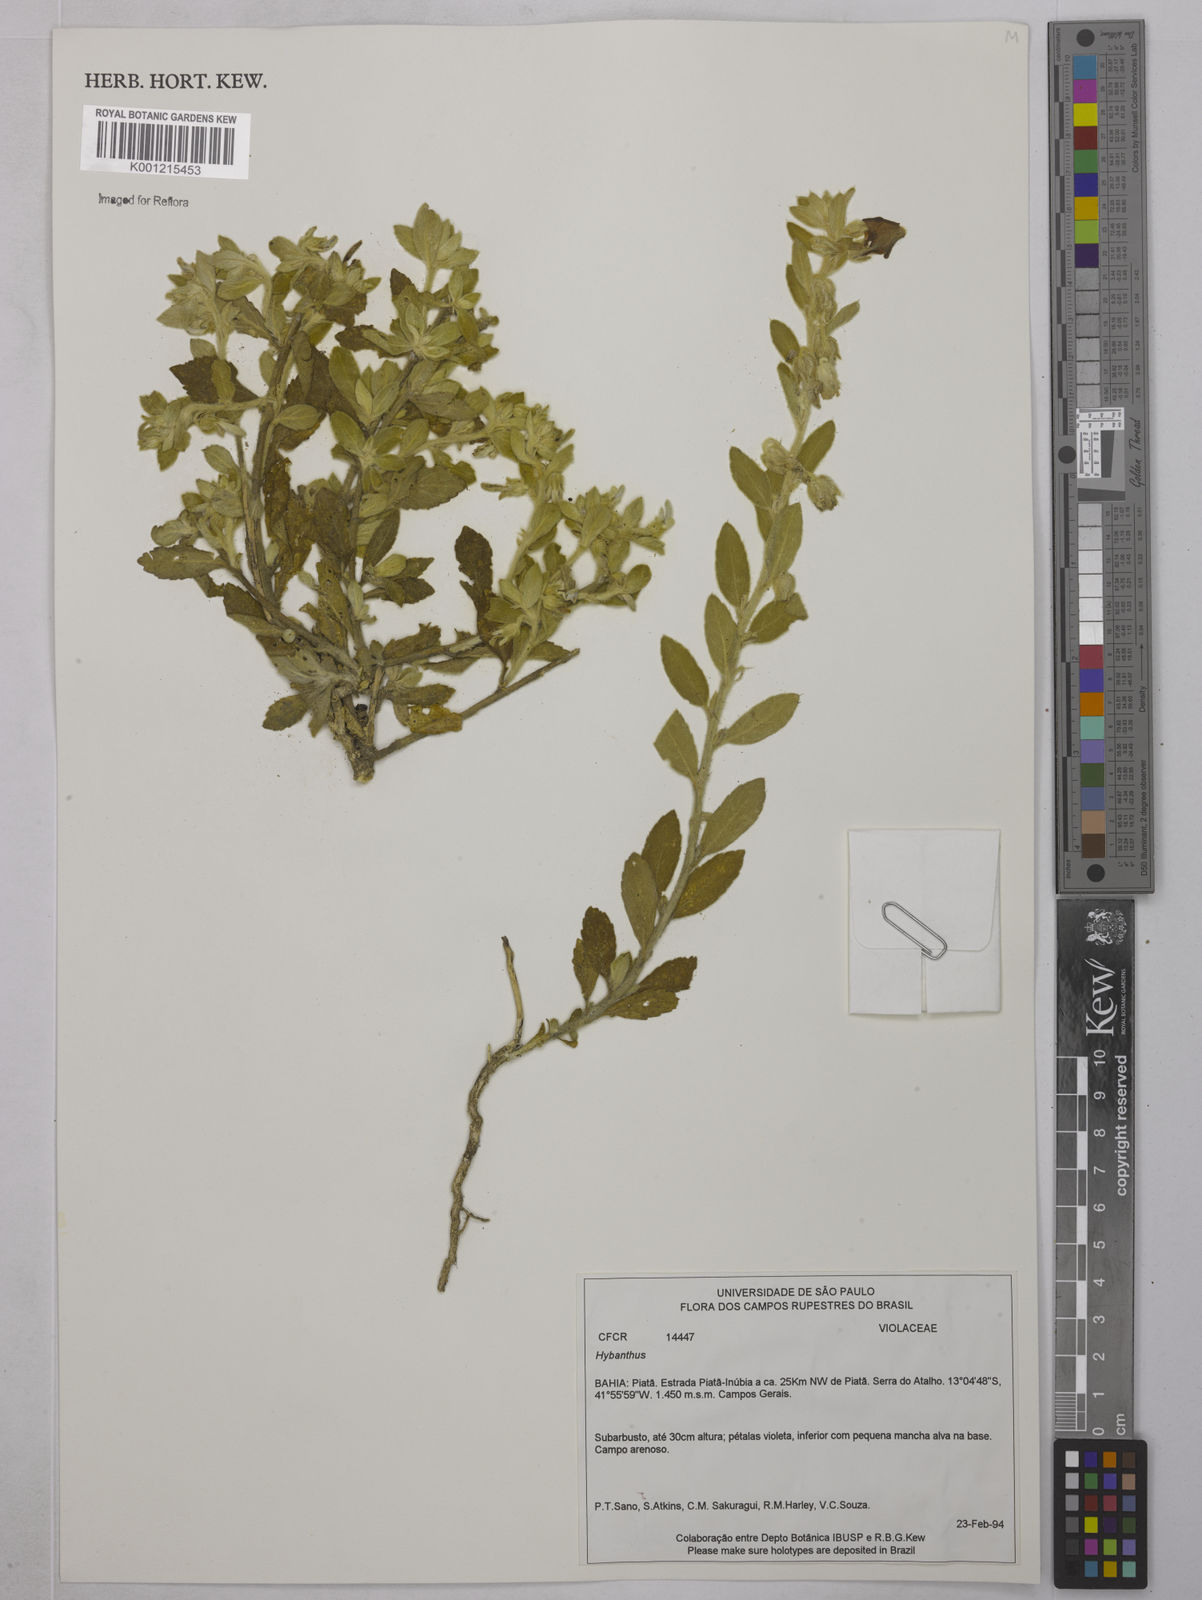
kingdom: Plantae
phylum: Tracheophyta
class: Magnoliopsida
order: Malpighiales
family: Violaceae
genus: Hybanthus
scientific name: Hybanthus
